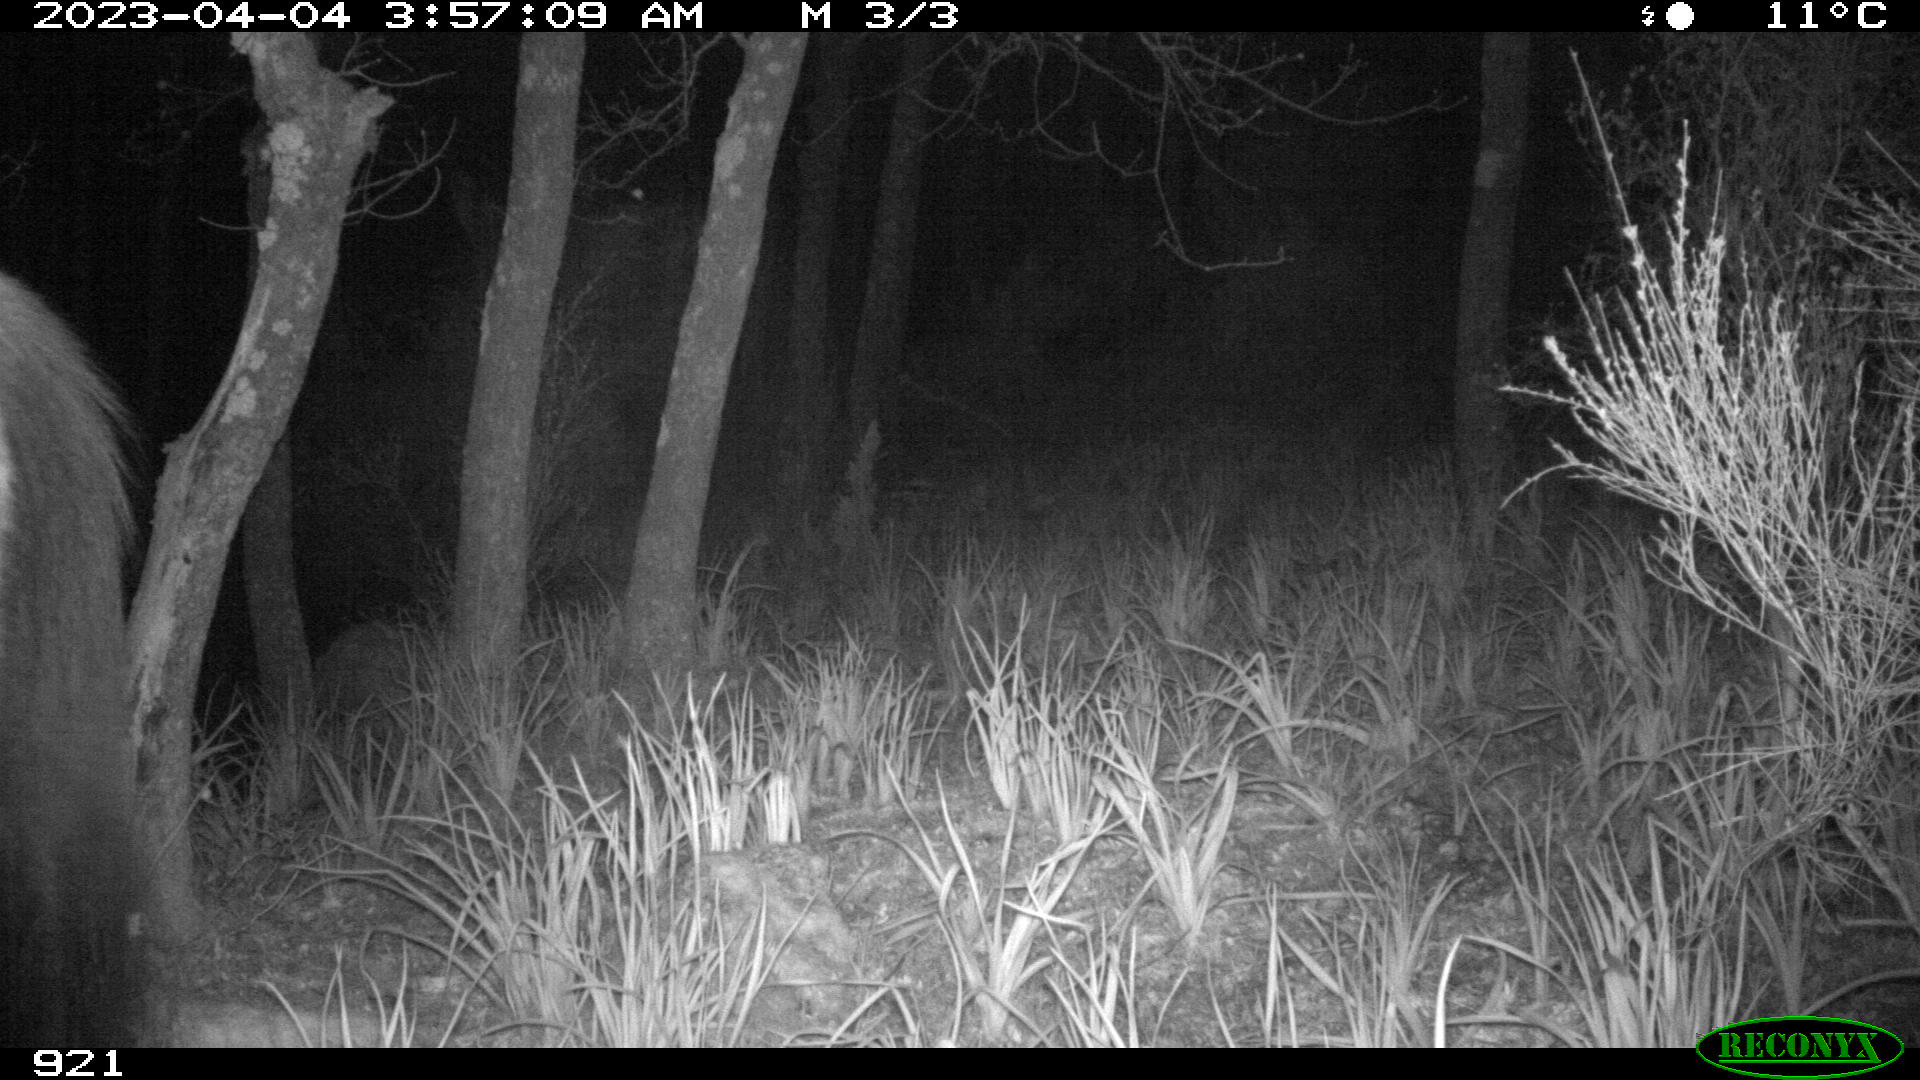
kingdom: Animalia
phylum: Chordata
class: Mammalia
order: Perissodactyla
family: Equidae
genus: Equus
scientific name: Equus caballus
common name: Horse
